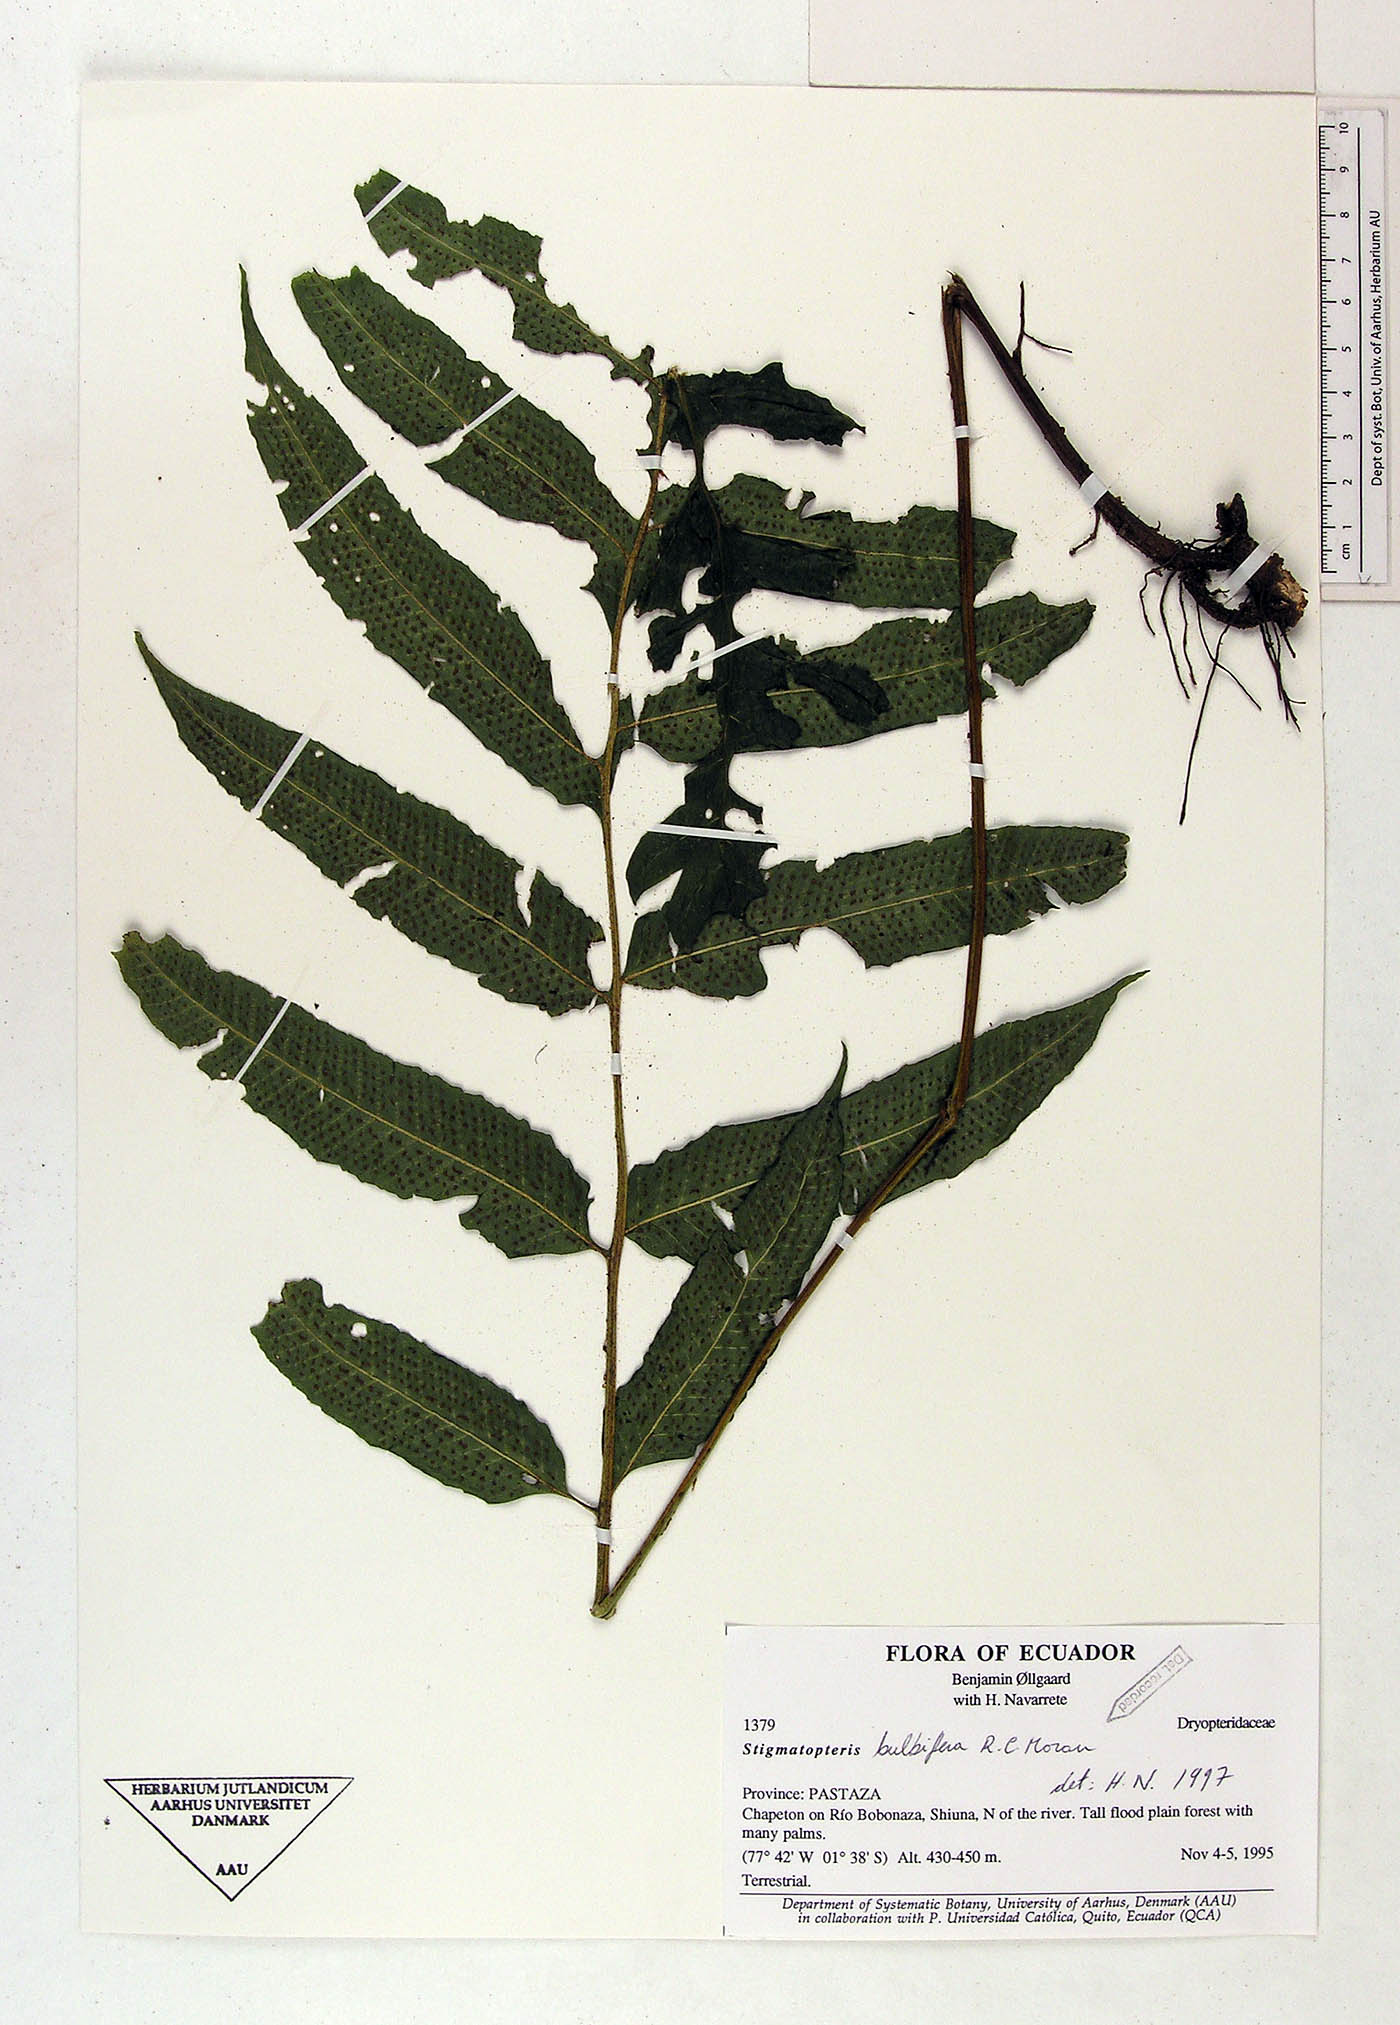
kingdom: Plantae
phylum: Tracheophyta
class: Polypodiopsida
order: Polypodiales
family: Dryopteridaceae
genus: Stigmatopteris
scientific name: Stigmatopteris bulbifera
